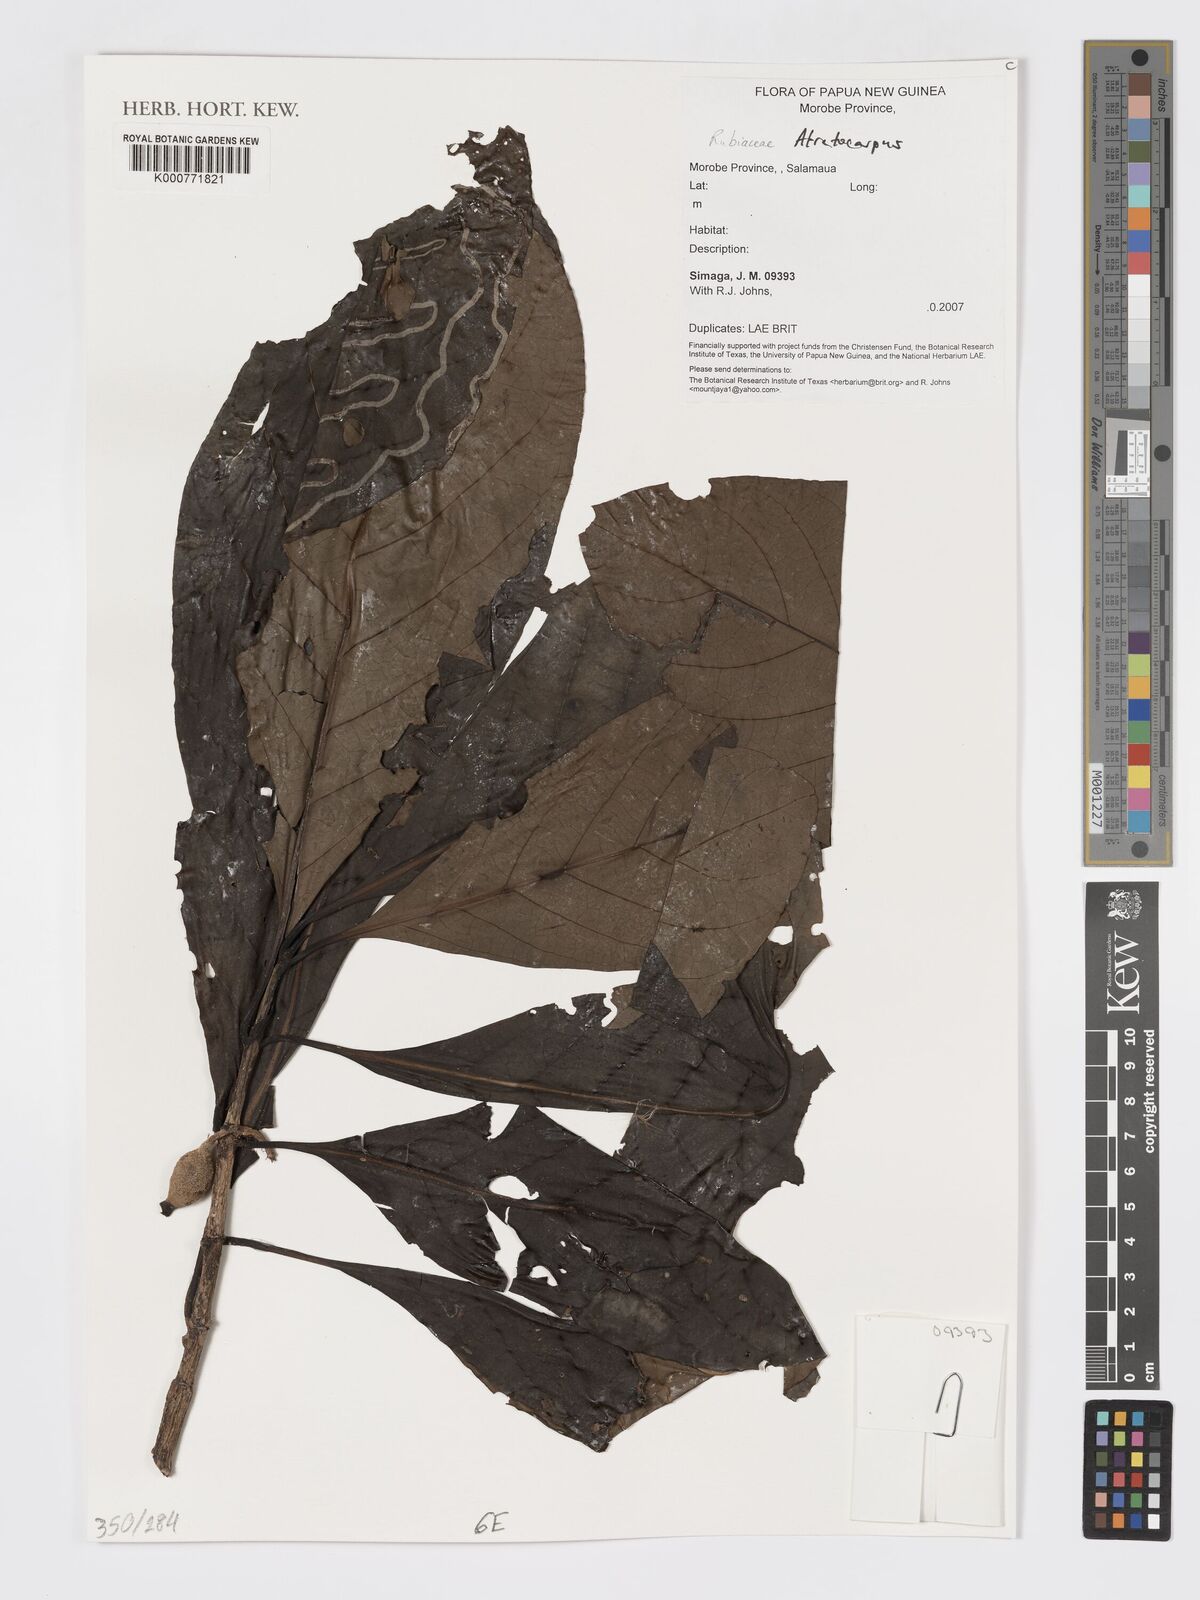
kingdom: Plantae
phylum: Tracheophyta
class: Magnoliopsida
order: Gentianales
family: Rubiaceae
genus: Atractocarpus
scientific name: Atractocarpus
